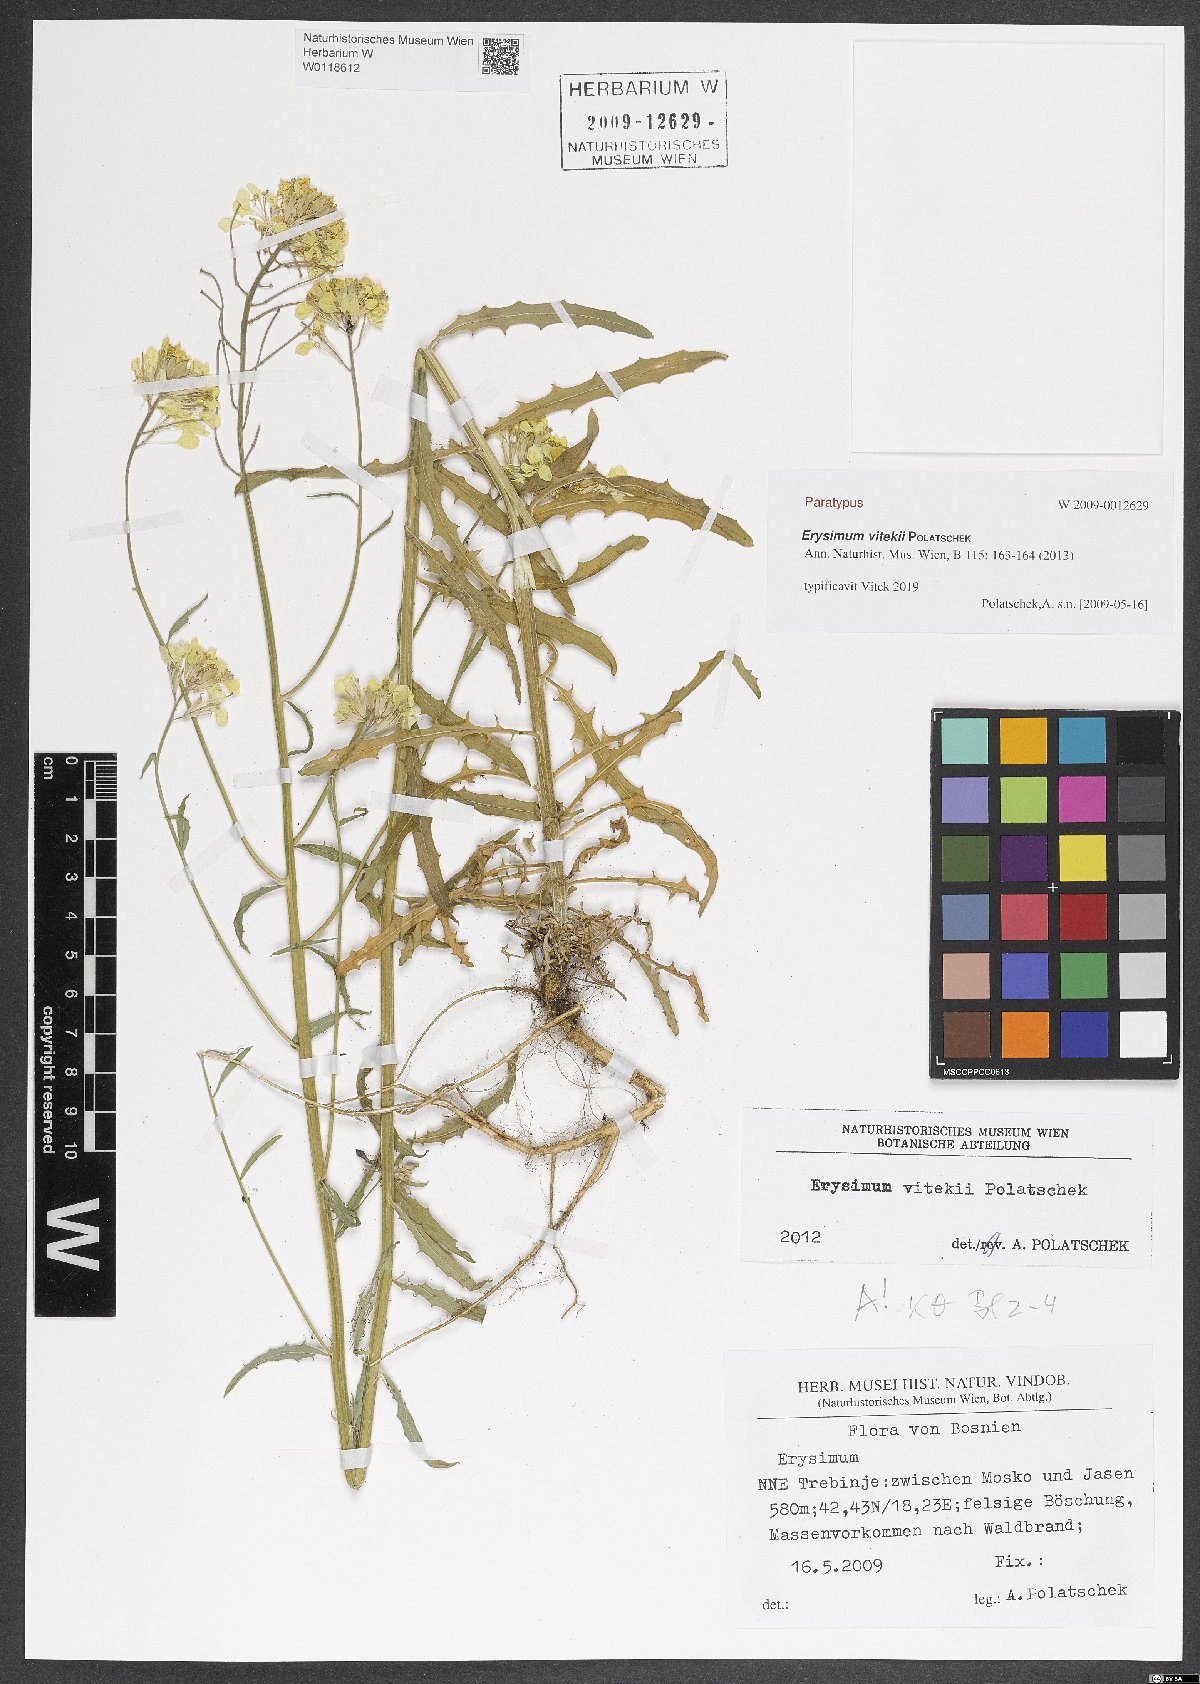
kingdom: Plantae
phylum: Tracheophyta
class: Magnoliopsida
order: Brassicales
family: Brassicaceae
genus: Erysimum
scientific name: Erysimum vitekii
